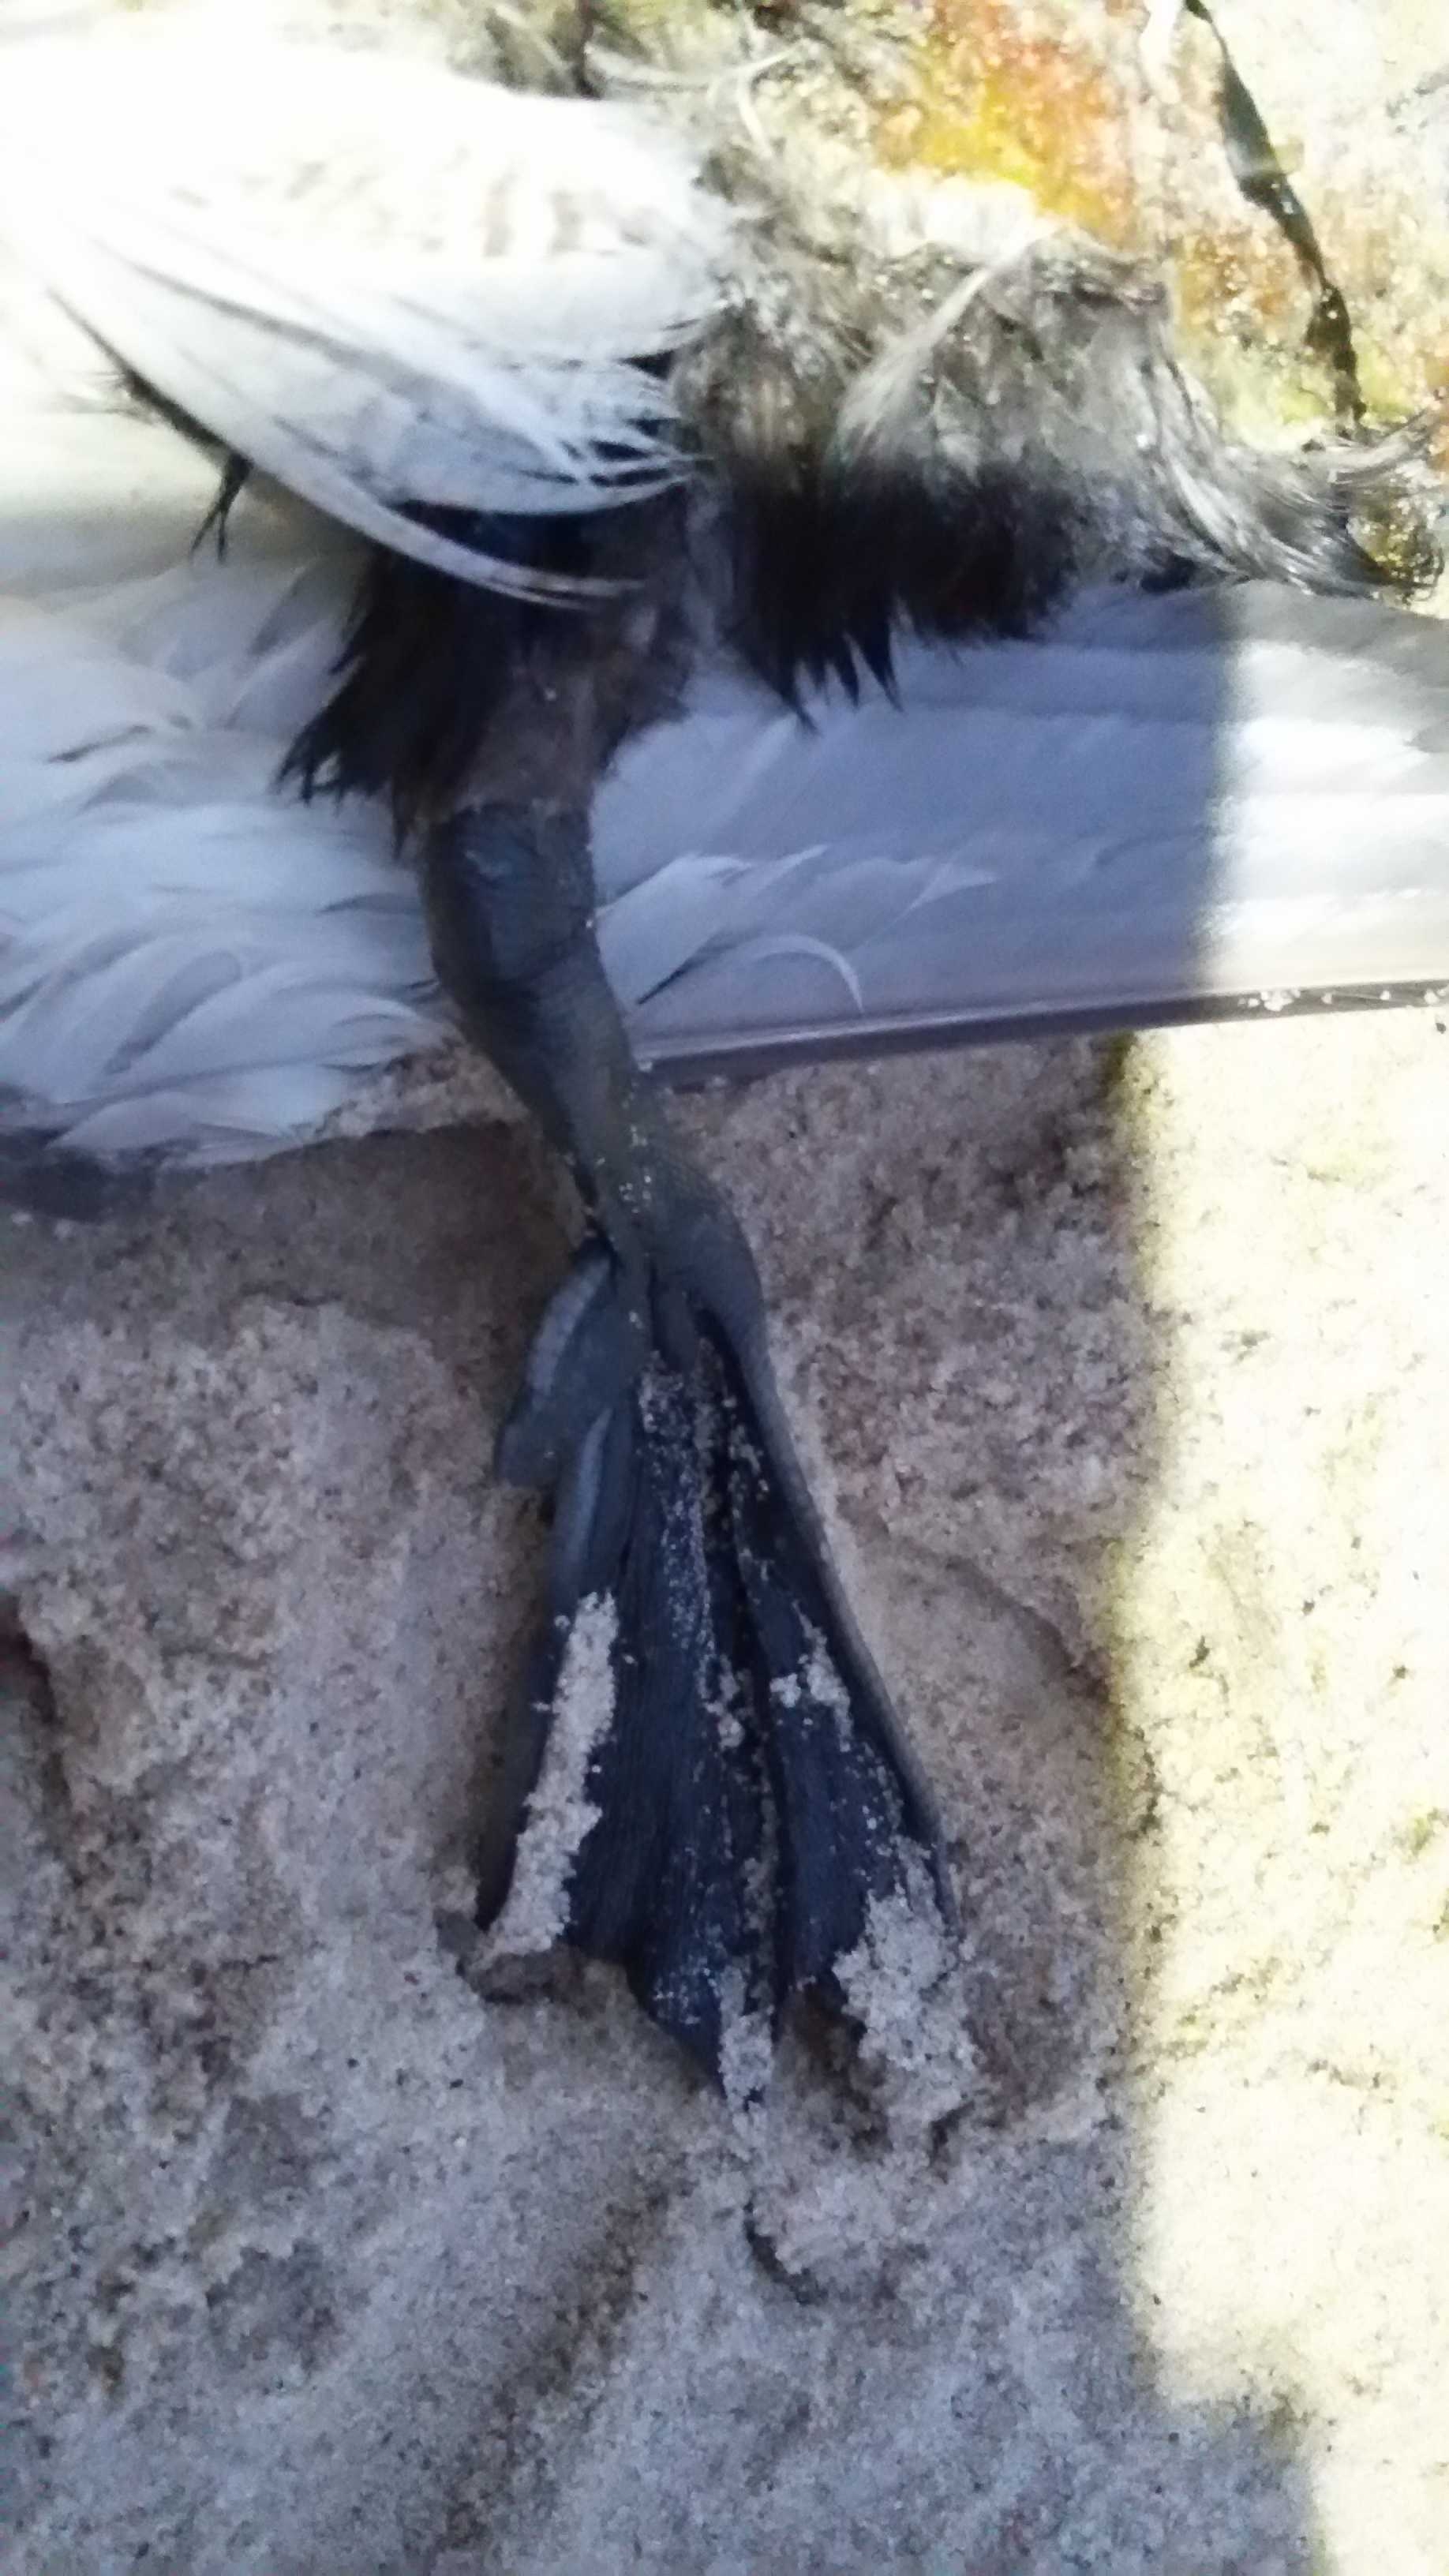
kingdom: Animalia
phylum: Chordata
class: Aves
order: Anseriformes
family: Anatidae
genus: Aythya
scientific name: Aythya marila
